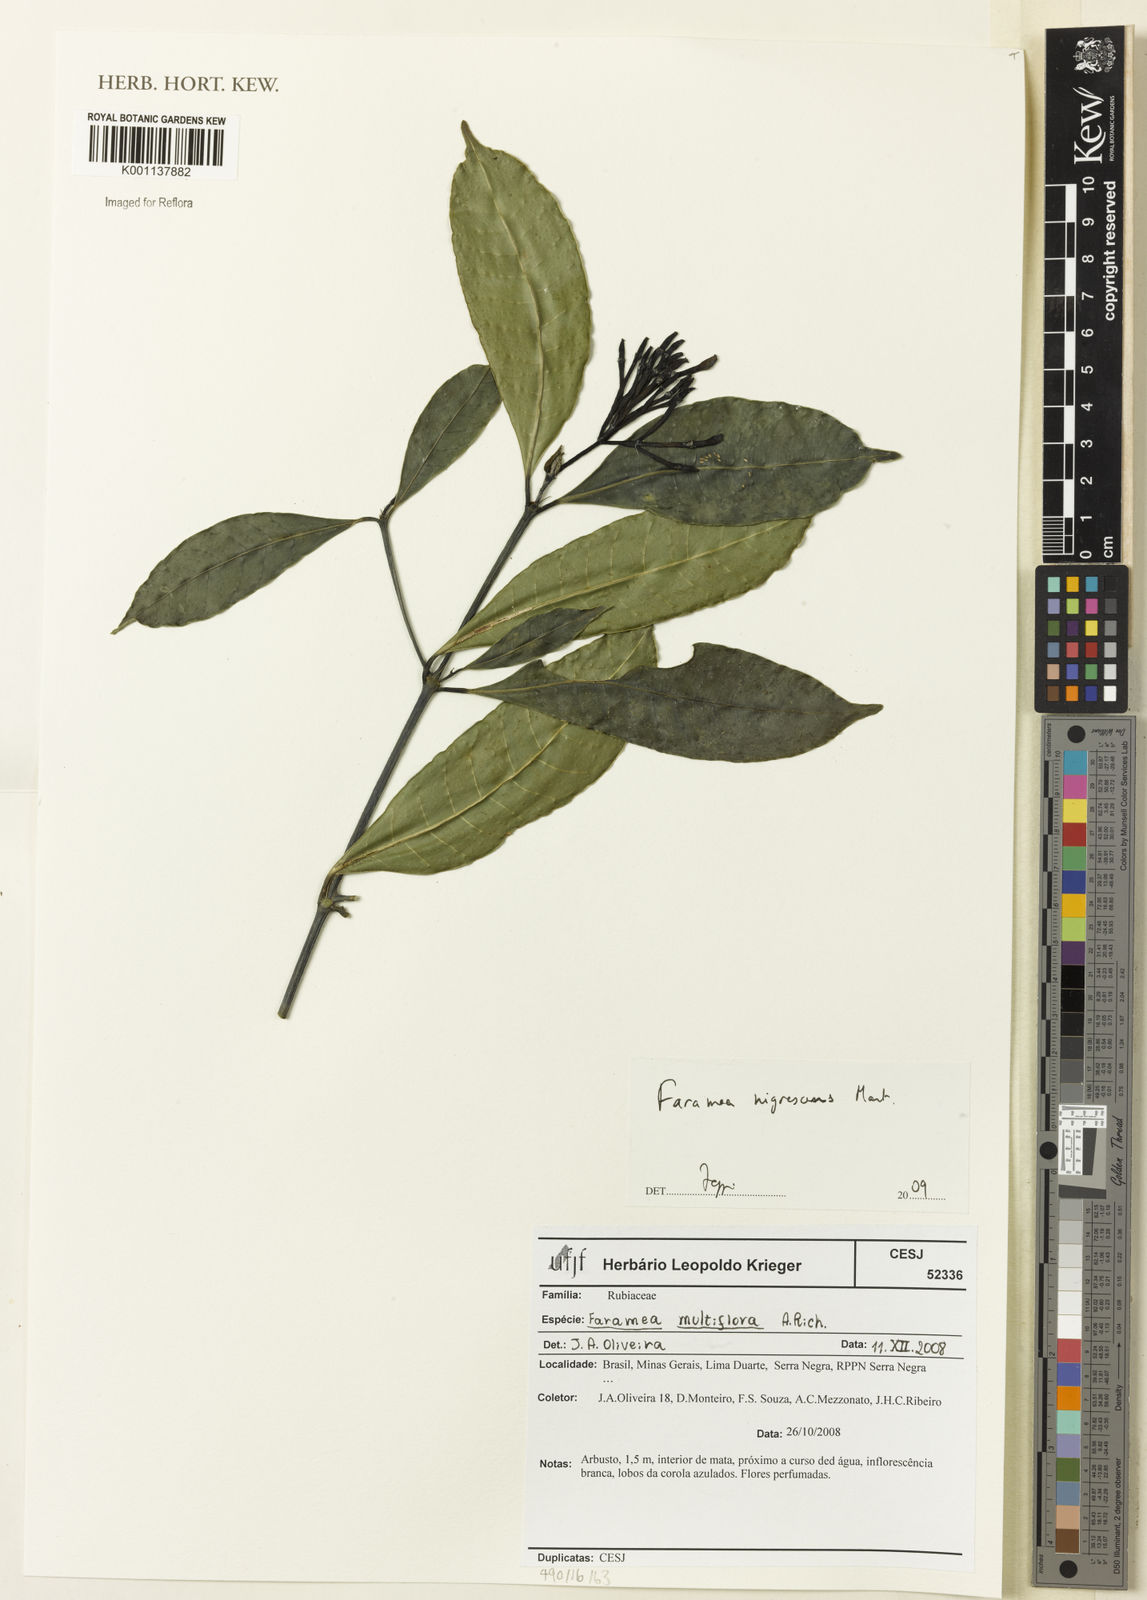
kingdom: Plantae
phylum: Tracheophyta
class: Magnoliopsida
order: Gentianales
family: Rubiaceae
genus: Faramea
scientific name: Faramea multiflora
